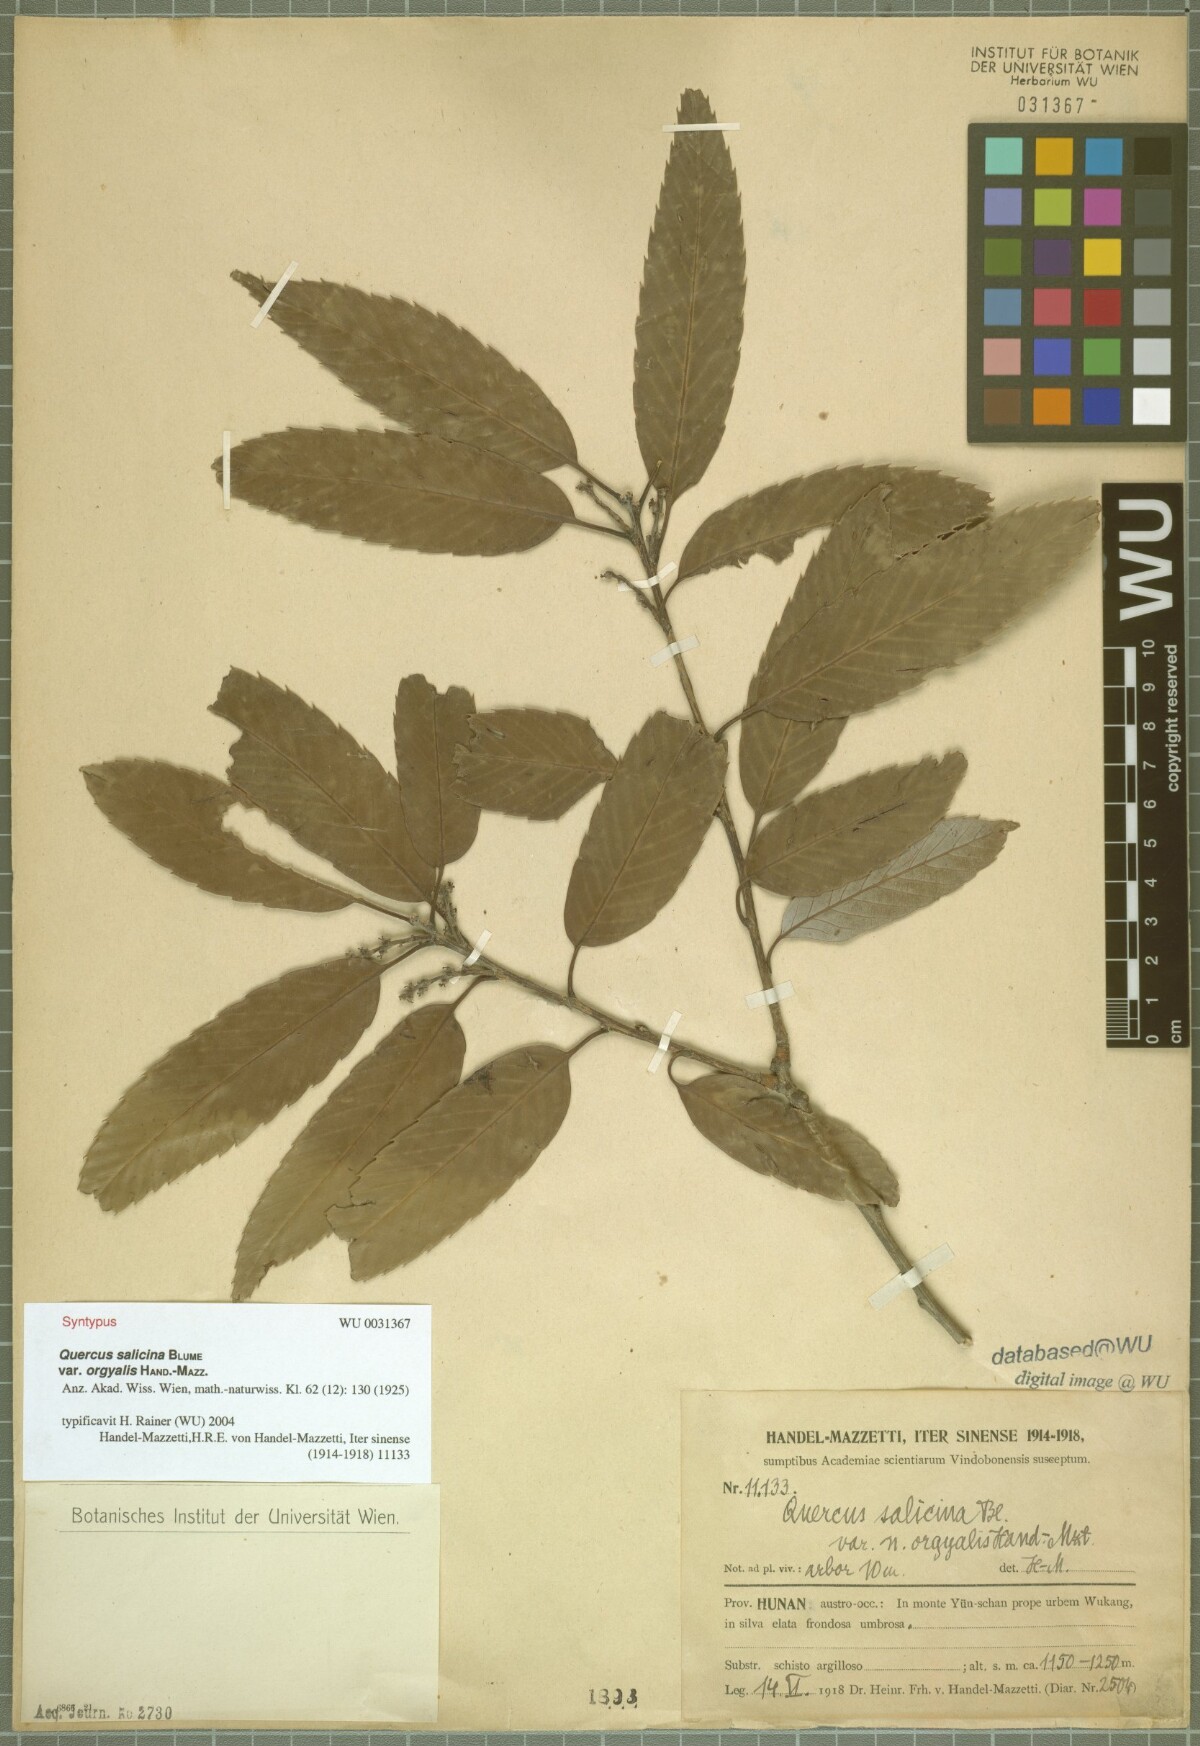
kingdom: Plantae
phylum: Tracheophyta
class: Magnoliopsida
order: Fagales
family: Fagaceae
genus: Quercus
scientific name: Quercus oxyodon
